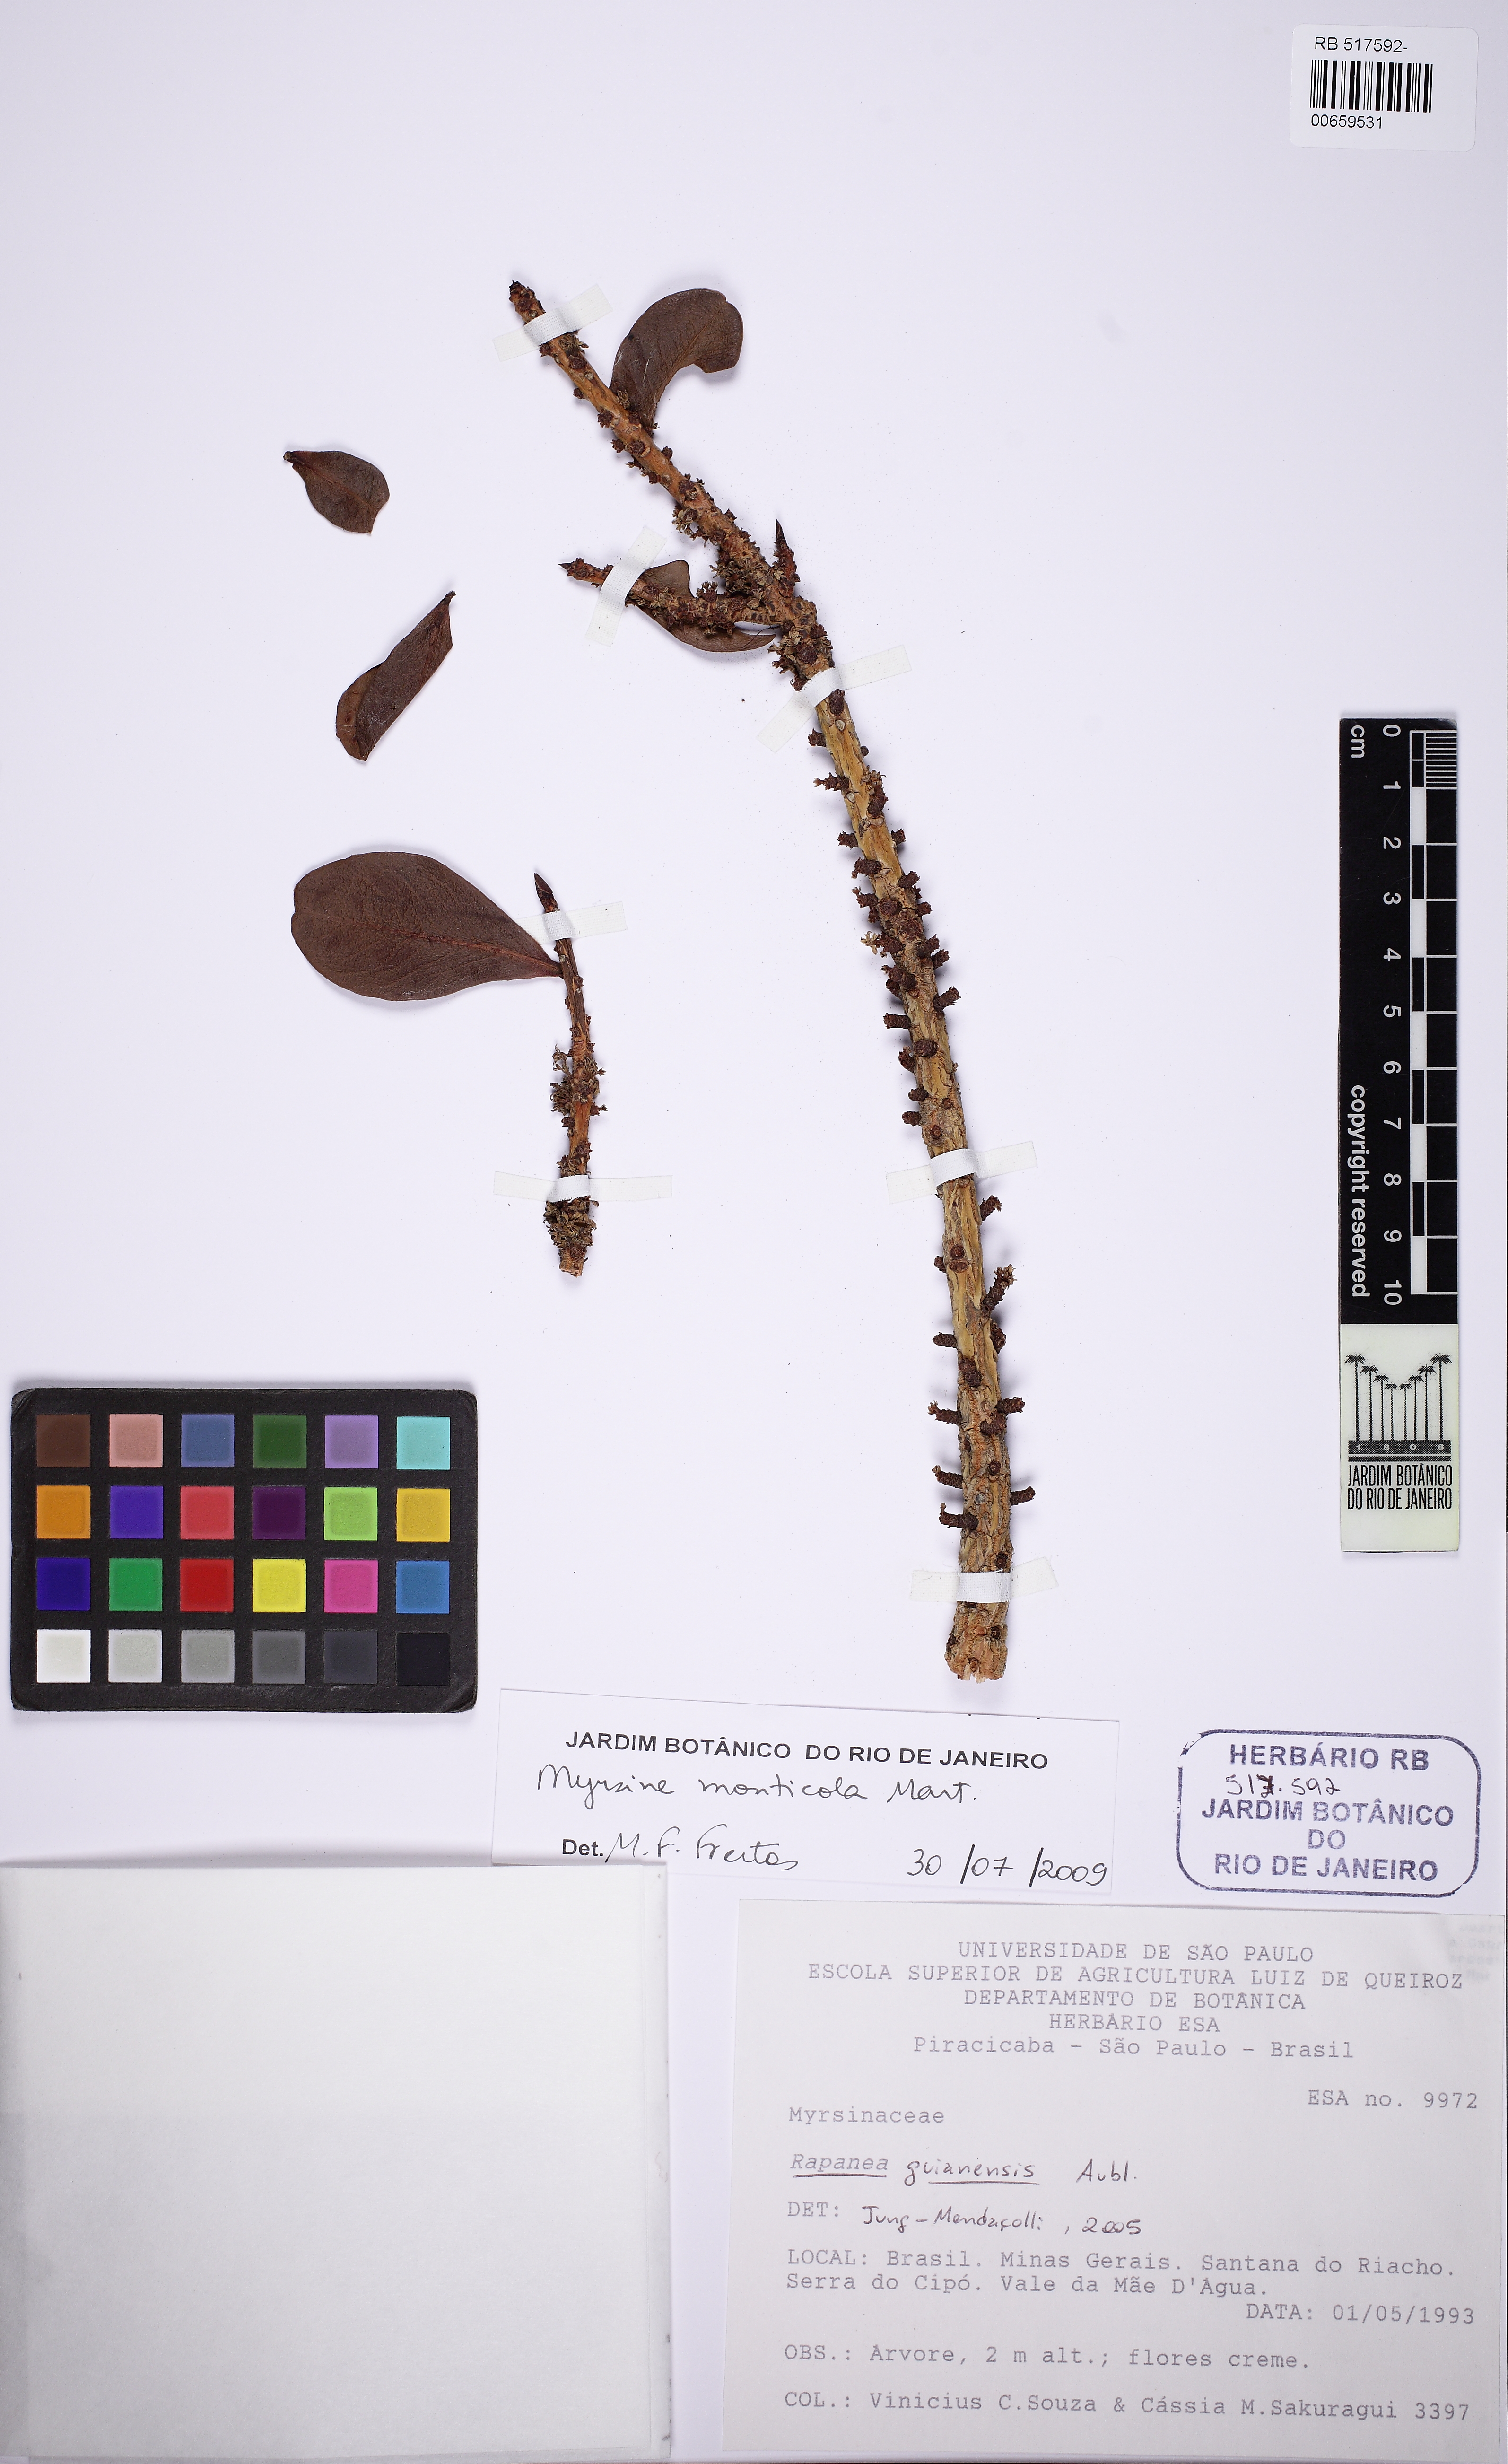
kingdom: Plantae
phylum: Tracheophyta
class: Magnoliopsida
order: Ericales
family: Primulaceae
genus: Myrsine
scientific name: Myrsine monticola
